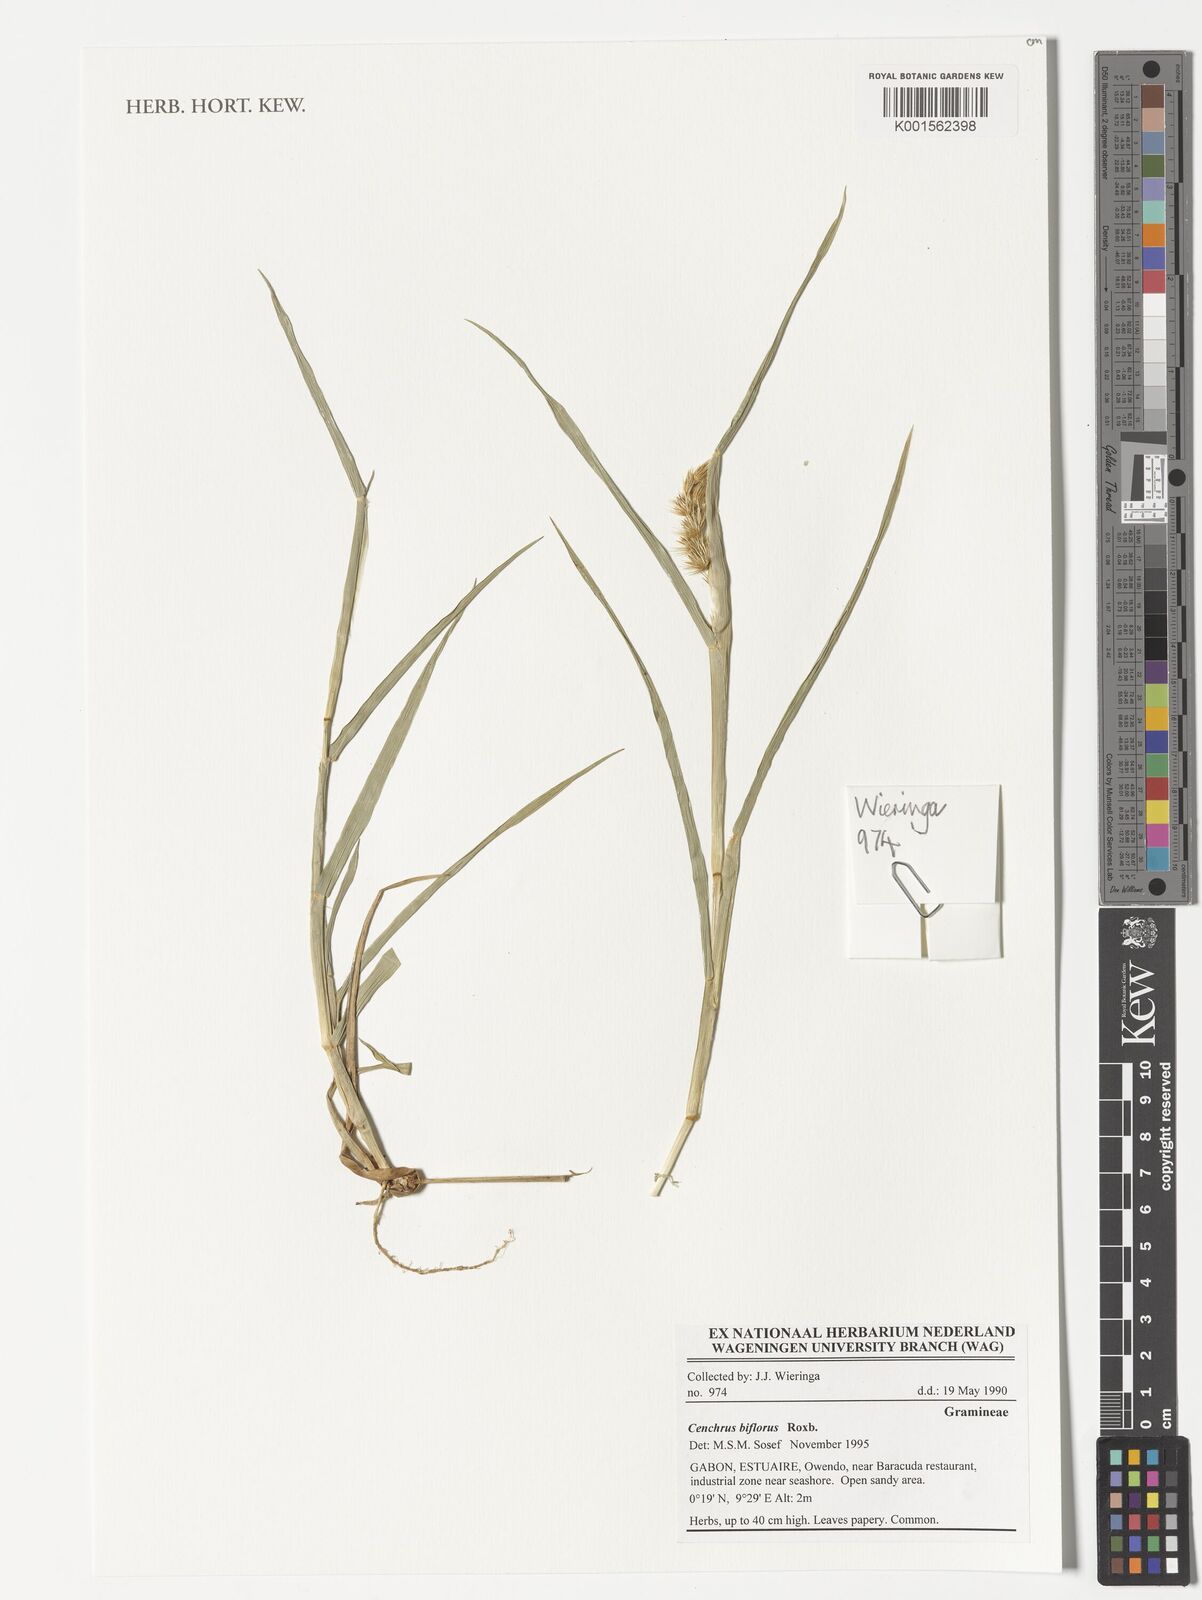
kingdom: Plantae
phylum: Tracheophyta
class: Liliopsida
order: Poales
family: Poaceae
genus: Cenchrus
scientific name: Cenchrus biflorus
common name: Indian sandbur
